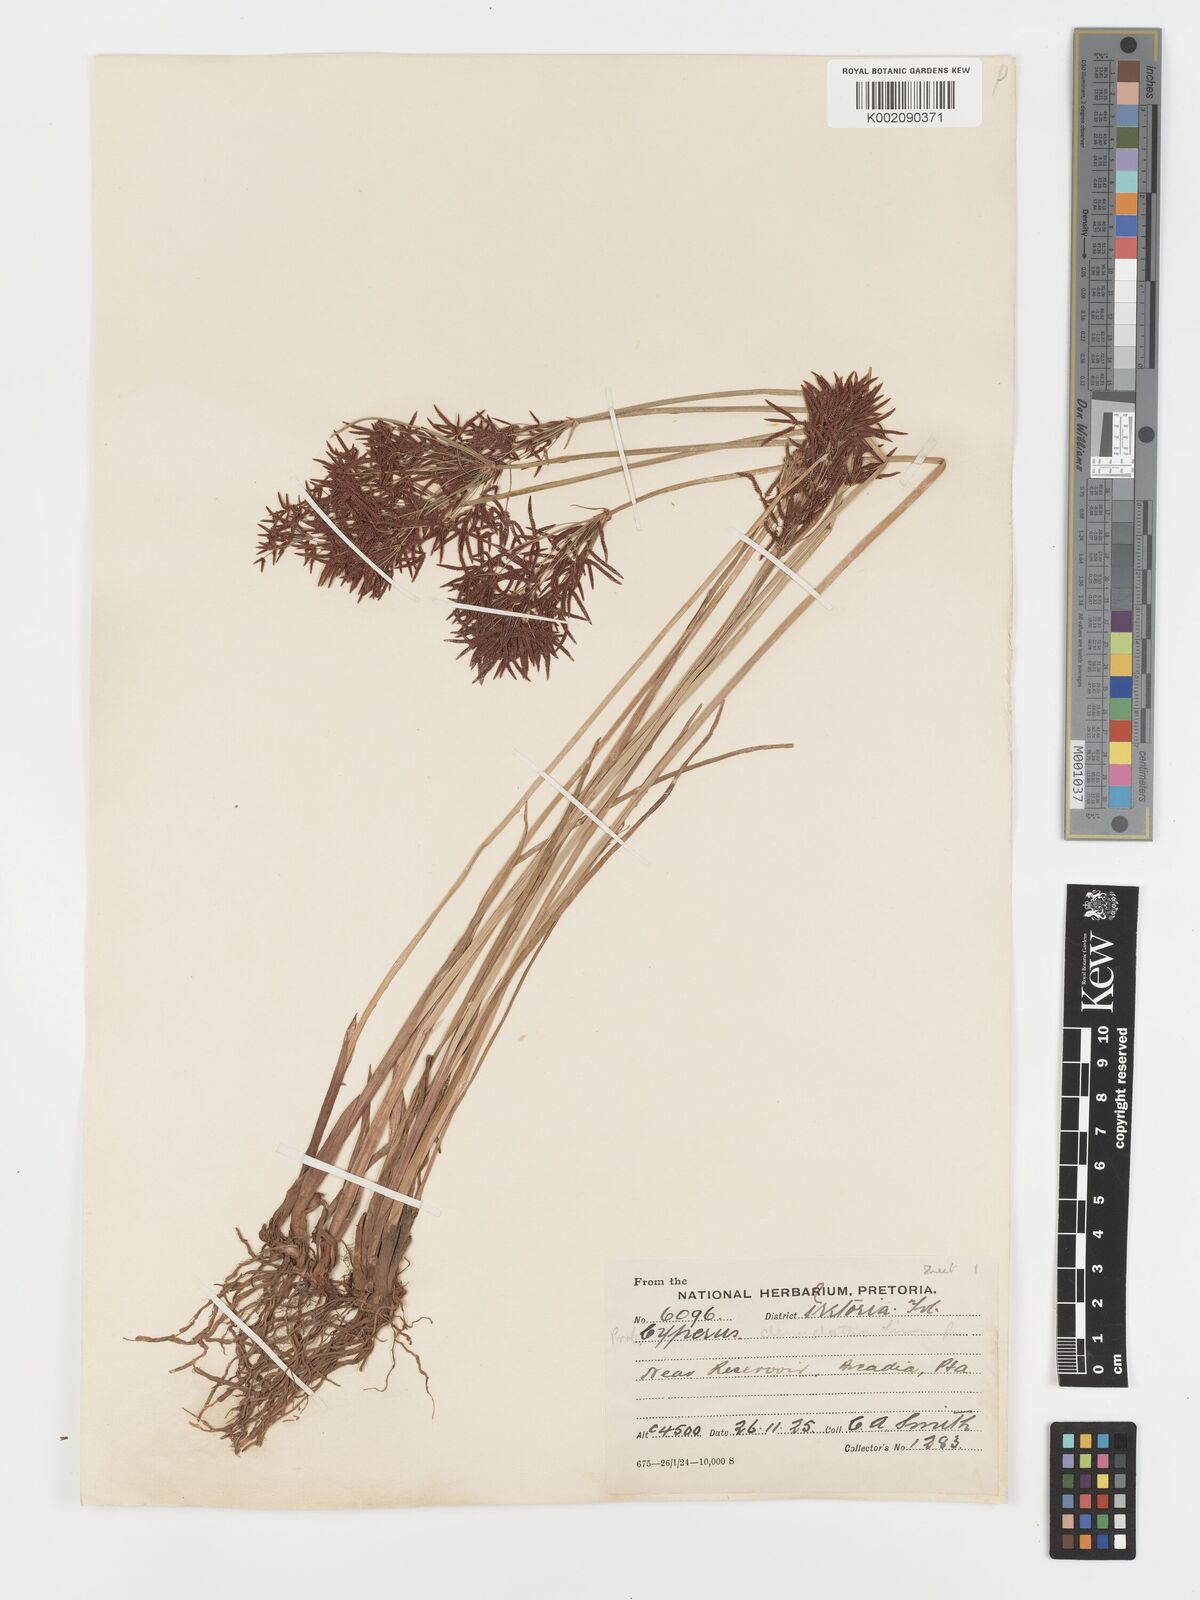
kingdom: Plantae
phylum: Tracheophyta
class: Liliopsida
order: Poales
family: Cyperaceae
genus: Cyperus
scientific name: Cyperus haspan
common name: Haspan flatsedge
